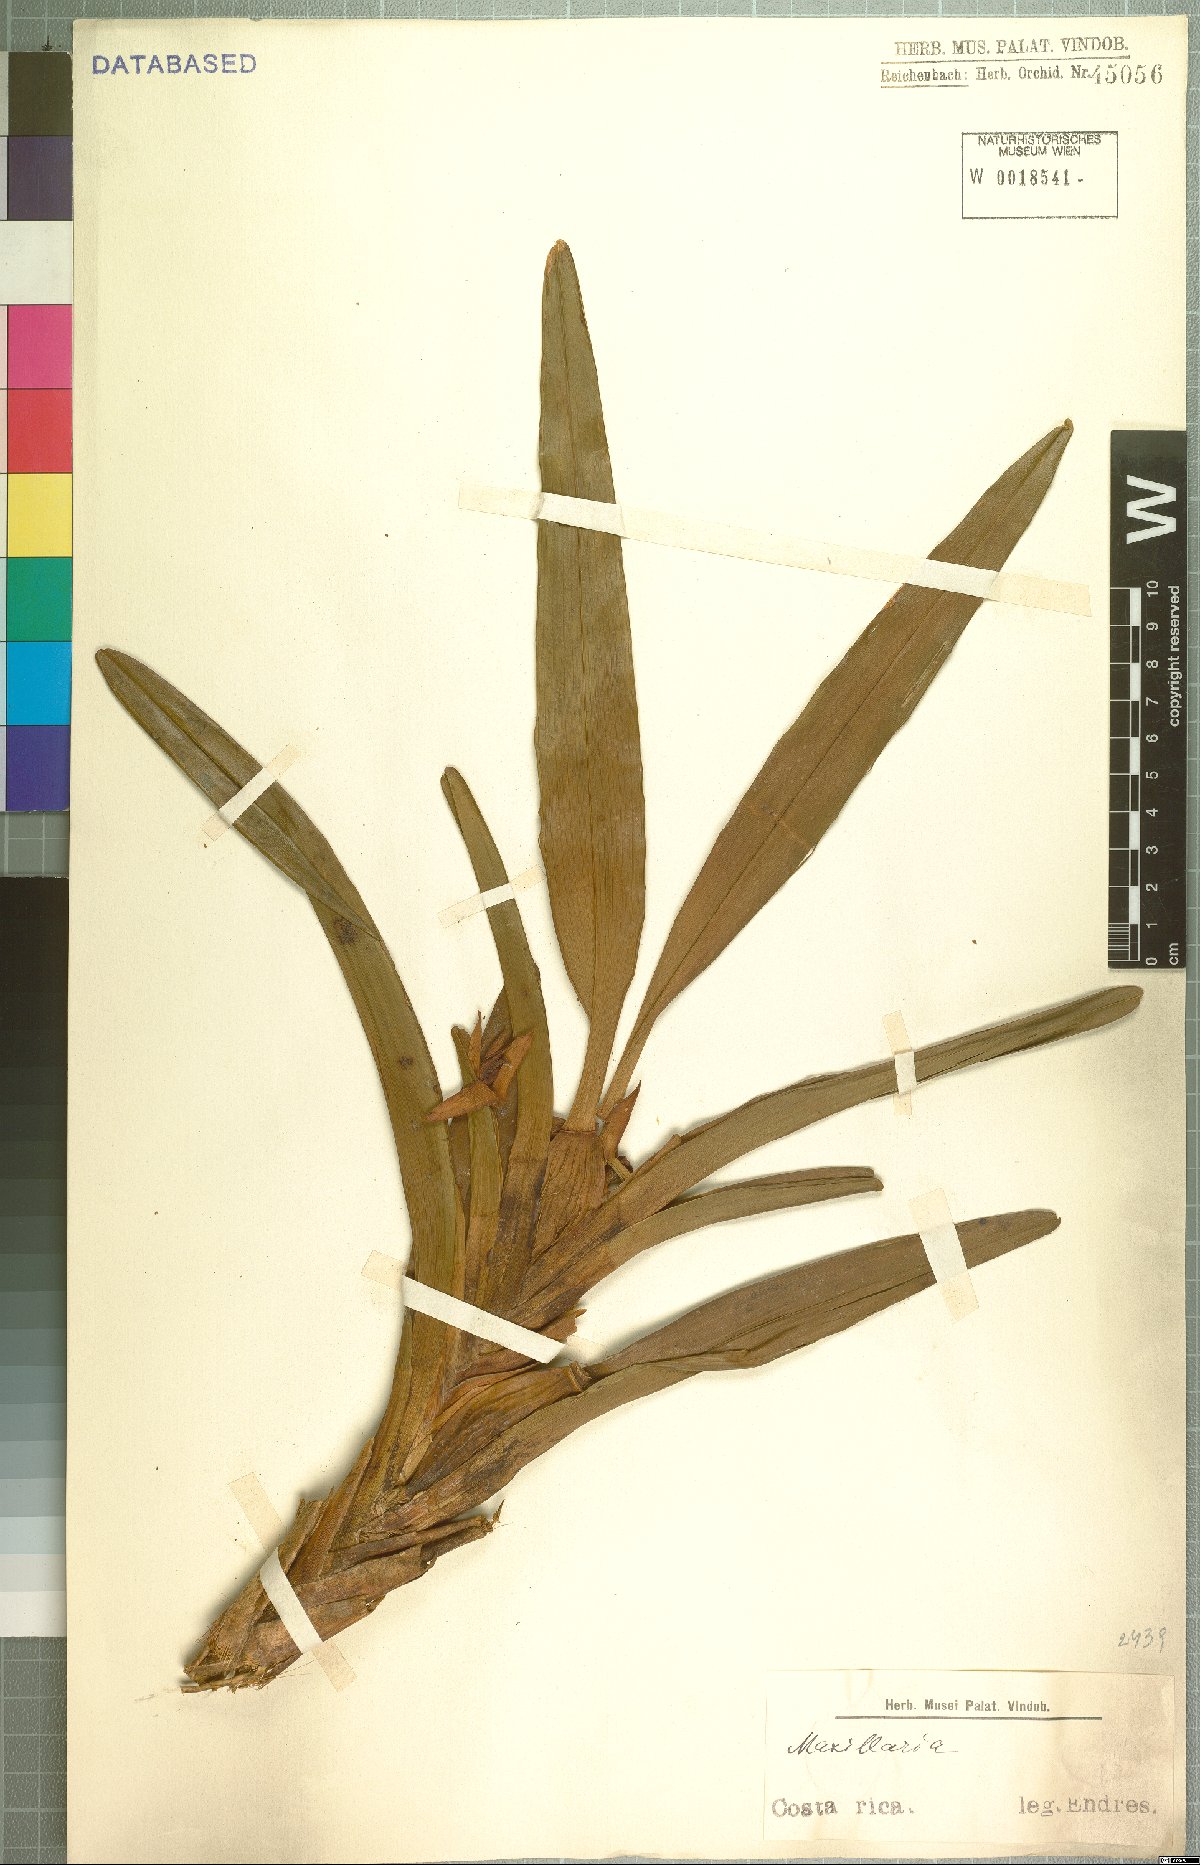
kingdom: Plantae
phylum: Tracheophyta
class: Liliopsida
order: Asparagales
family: Orchidaceae
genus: Maxillaria
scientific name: Maxillaria
